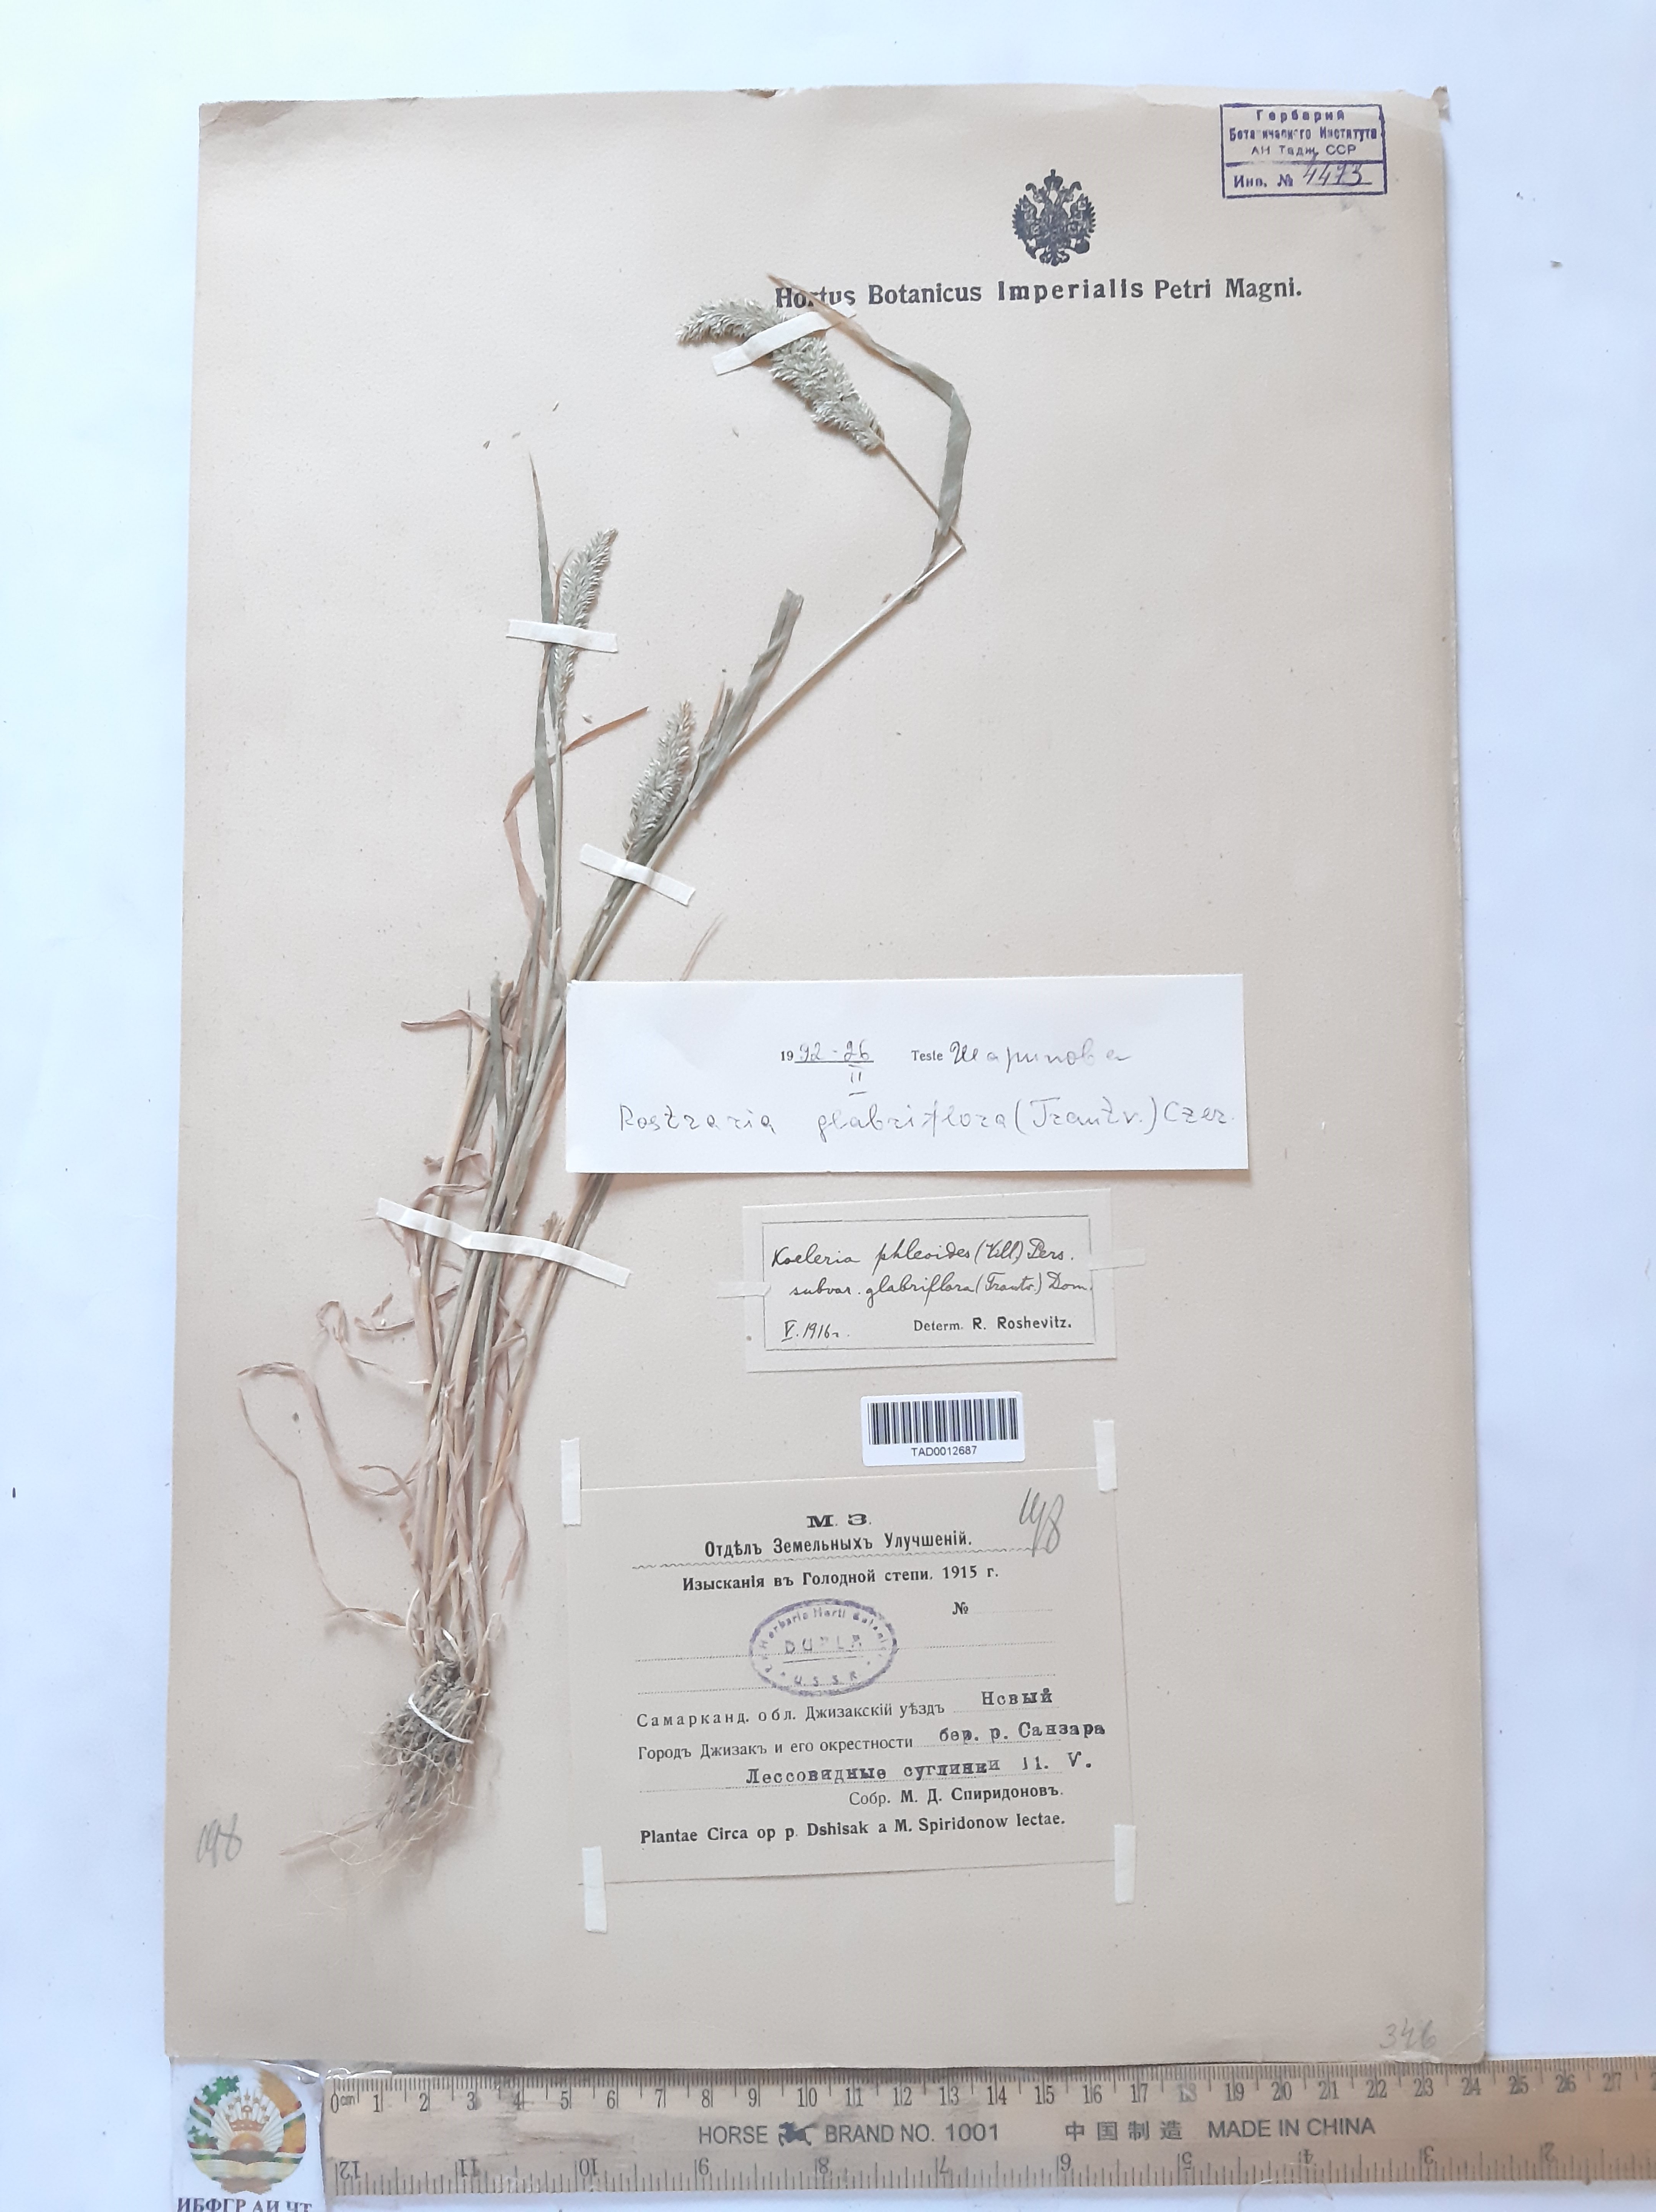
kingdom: Plantae
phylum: Tracheophyta
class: Liliopsida
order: Poales
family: Poaceae
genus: Rostraria
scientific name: Rostraria cristata
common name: Mediterranean hair-grass
